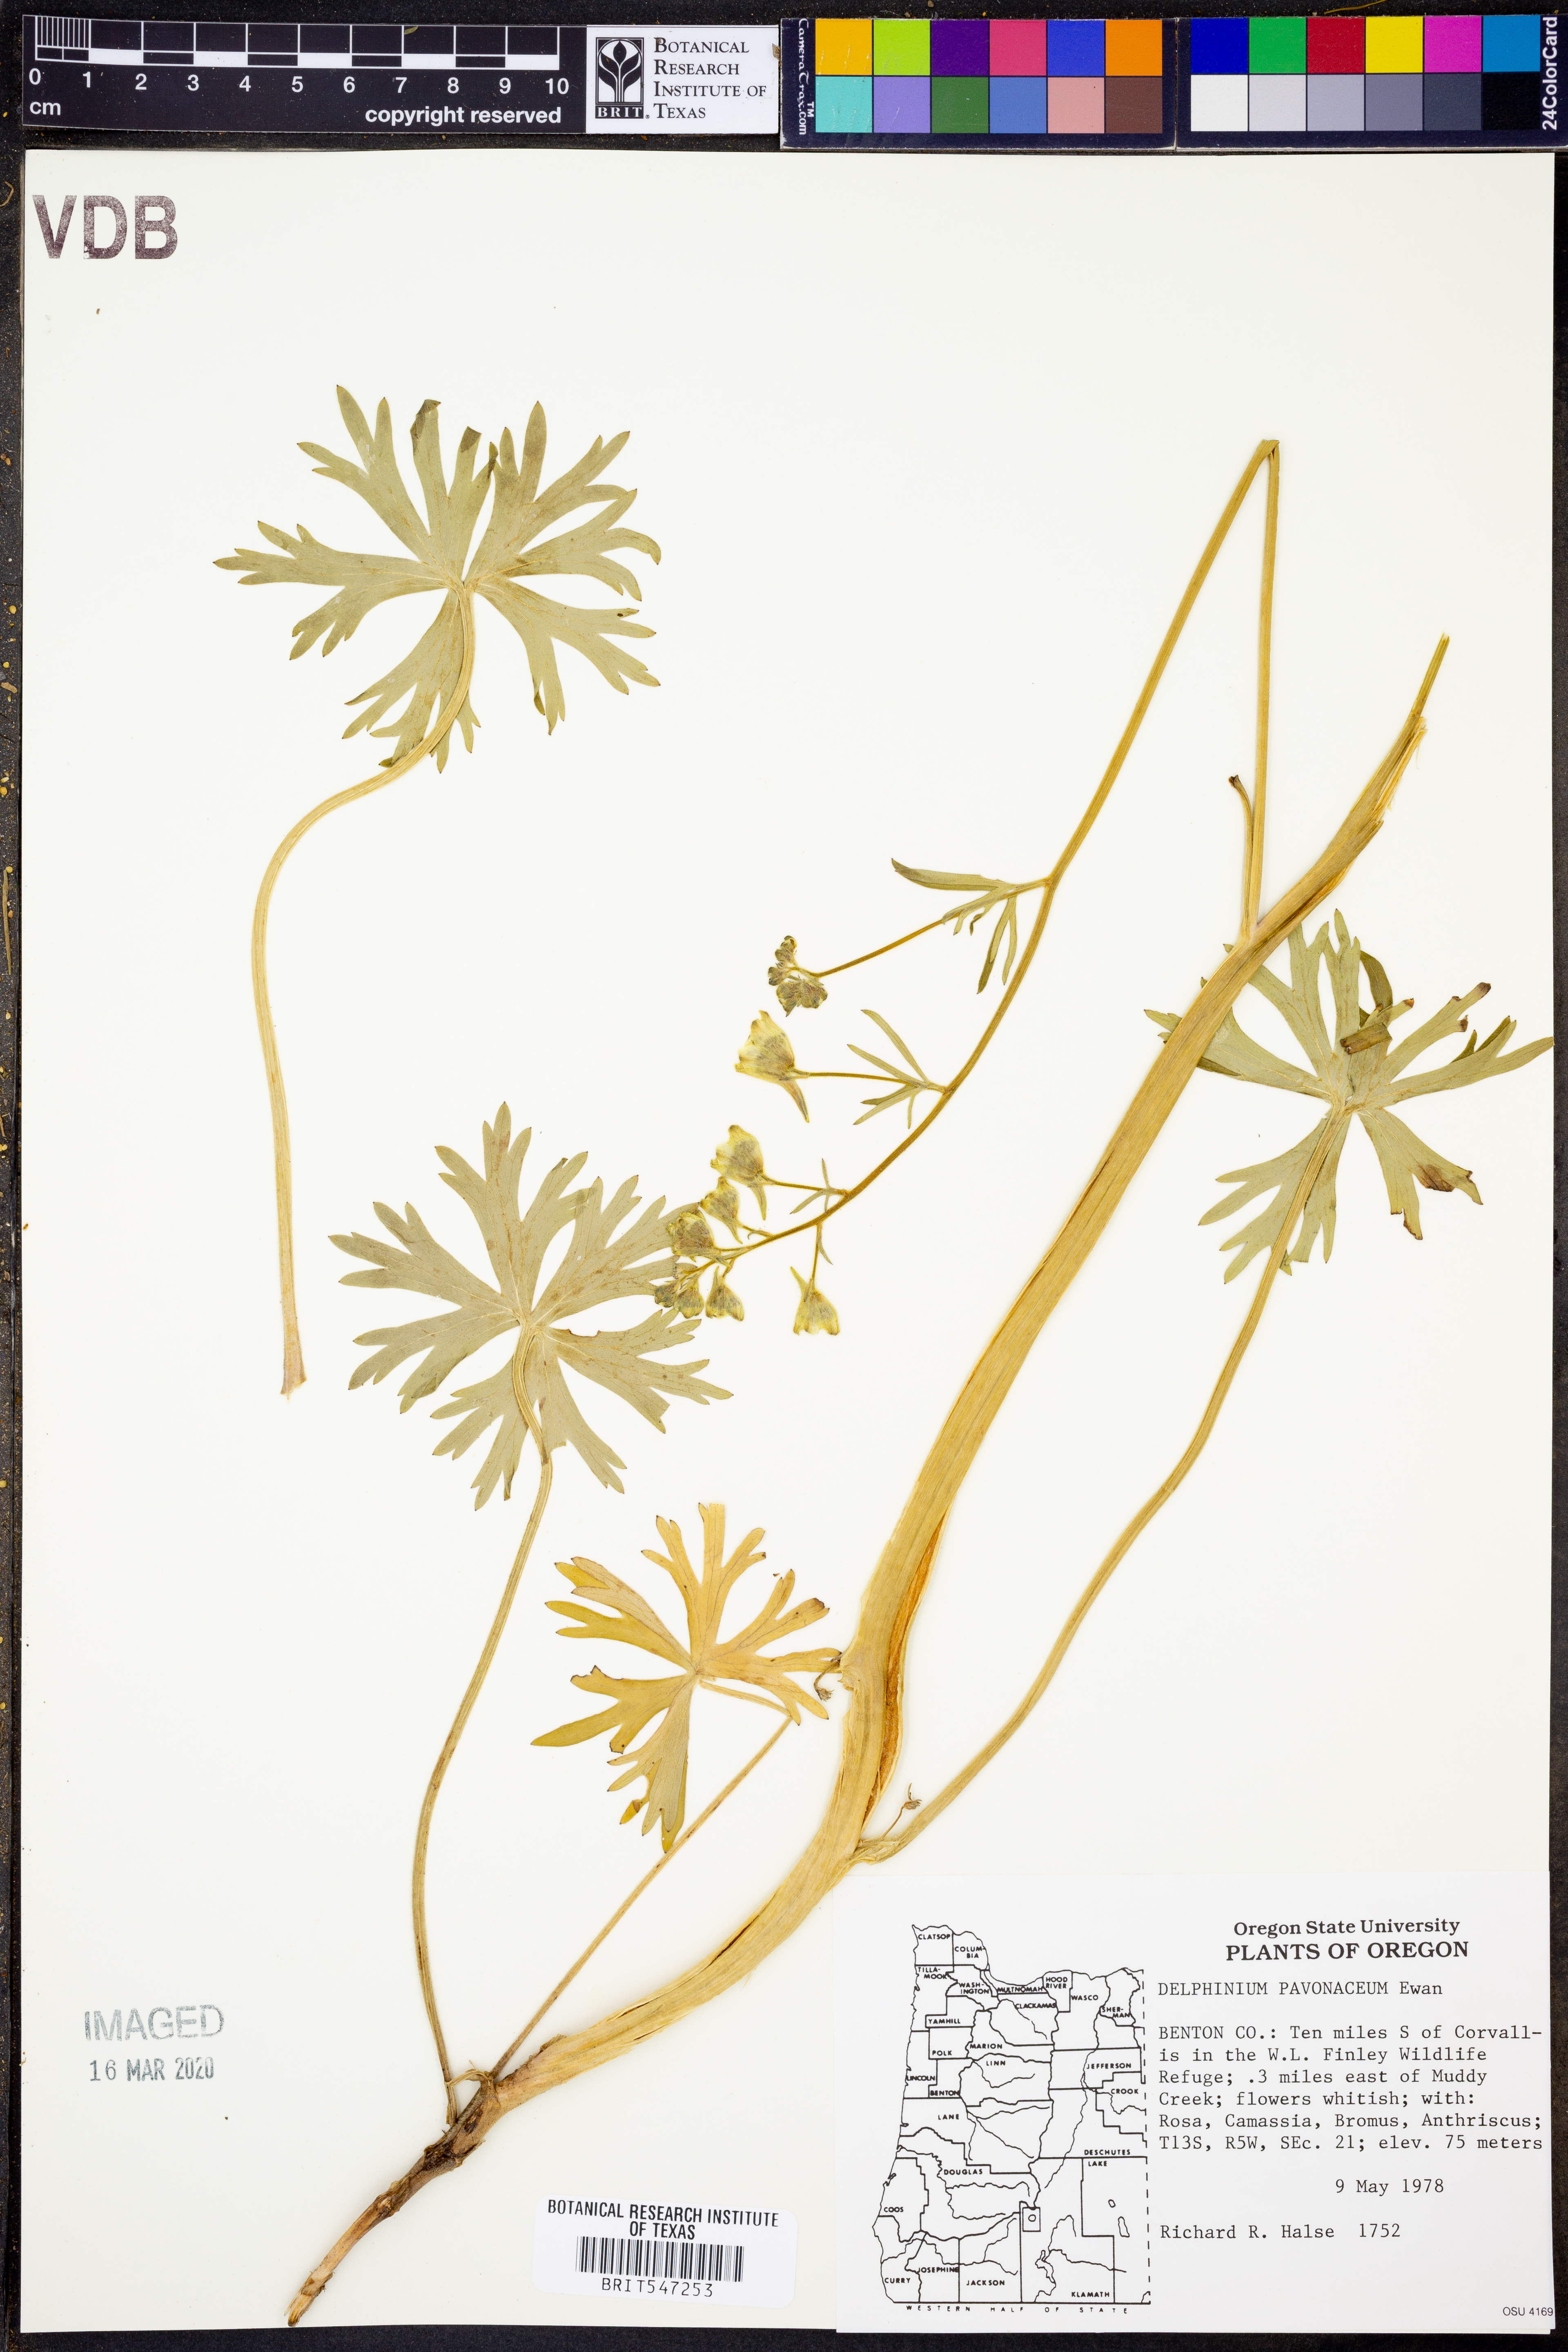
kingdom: Plantae
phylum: Tracheophyta
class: Magnoliopsida
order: Ranunculales
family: Ranunculaceae
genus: Delphinium
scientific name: Delphinium pavonaceum
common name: Peacock larkspur
